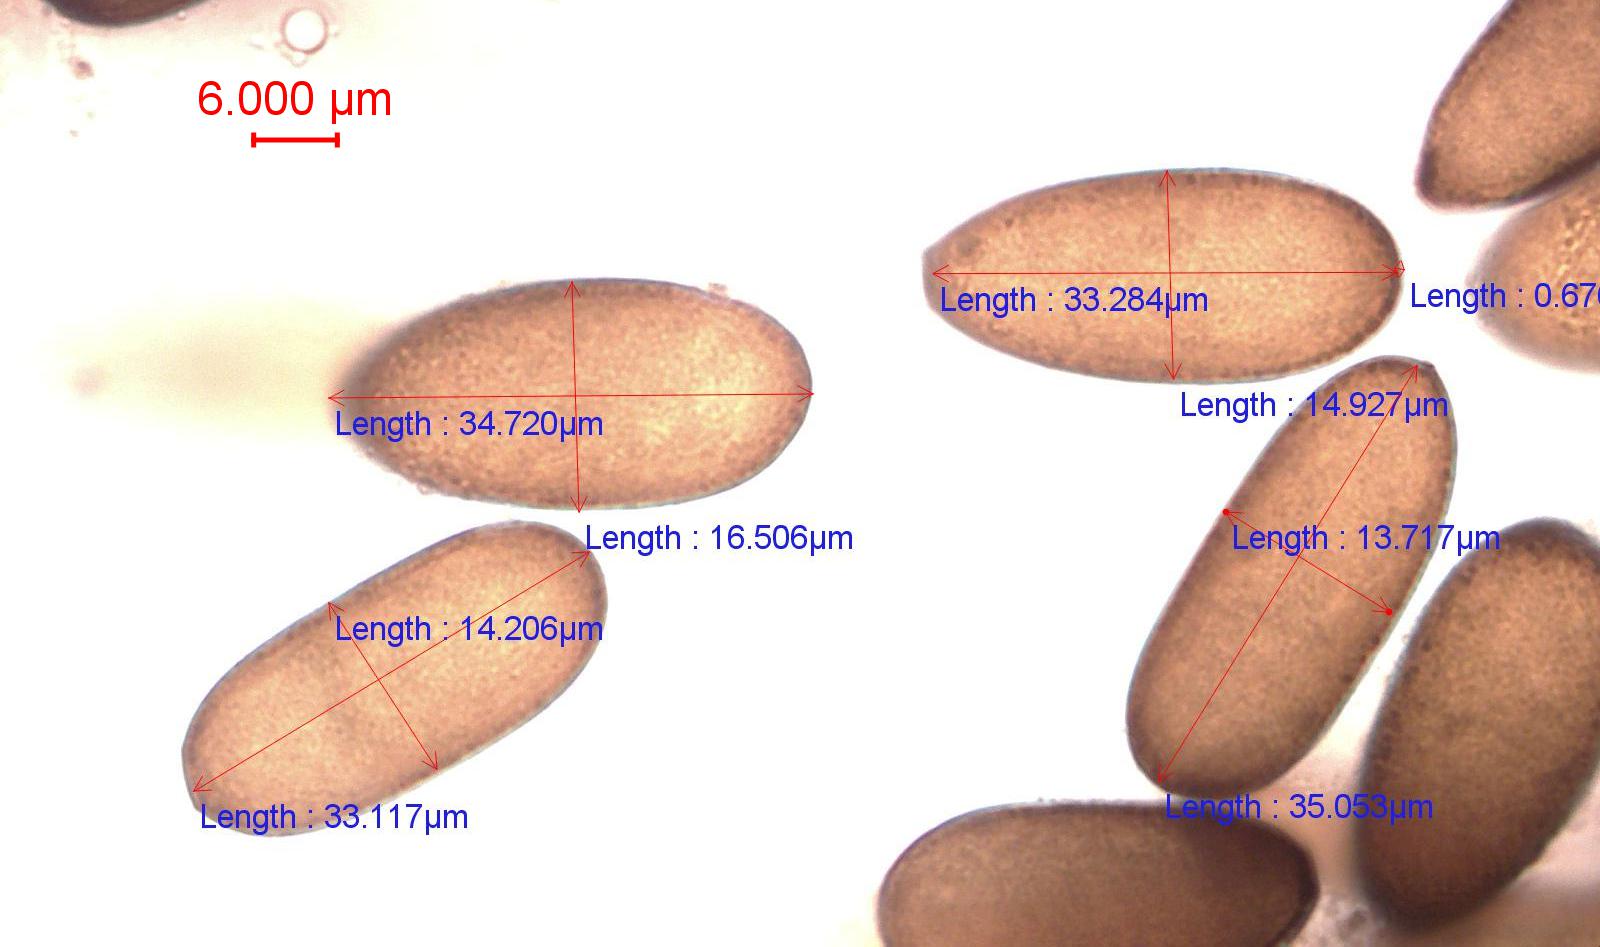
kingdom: Fungi
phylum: Ascomycota
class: Dothideomycetes
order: Botryosphaeriales
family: Botryosphaeriaceae
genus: Sphaeropsis
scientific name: Sphaeropsis sapinea
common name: Sphaeropsis blight
